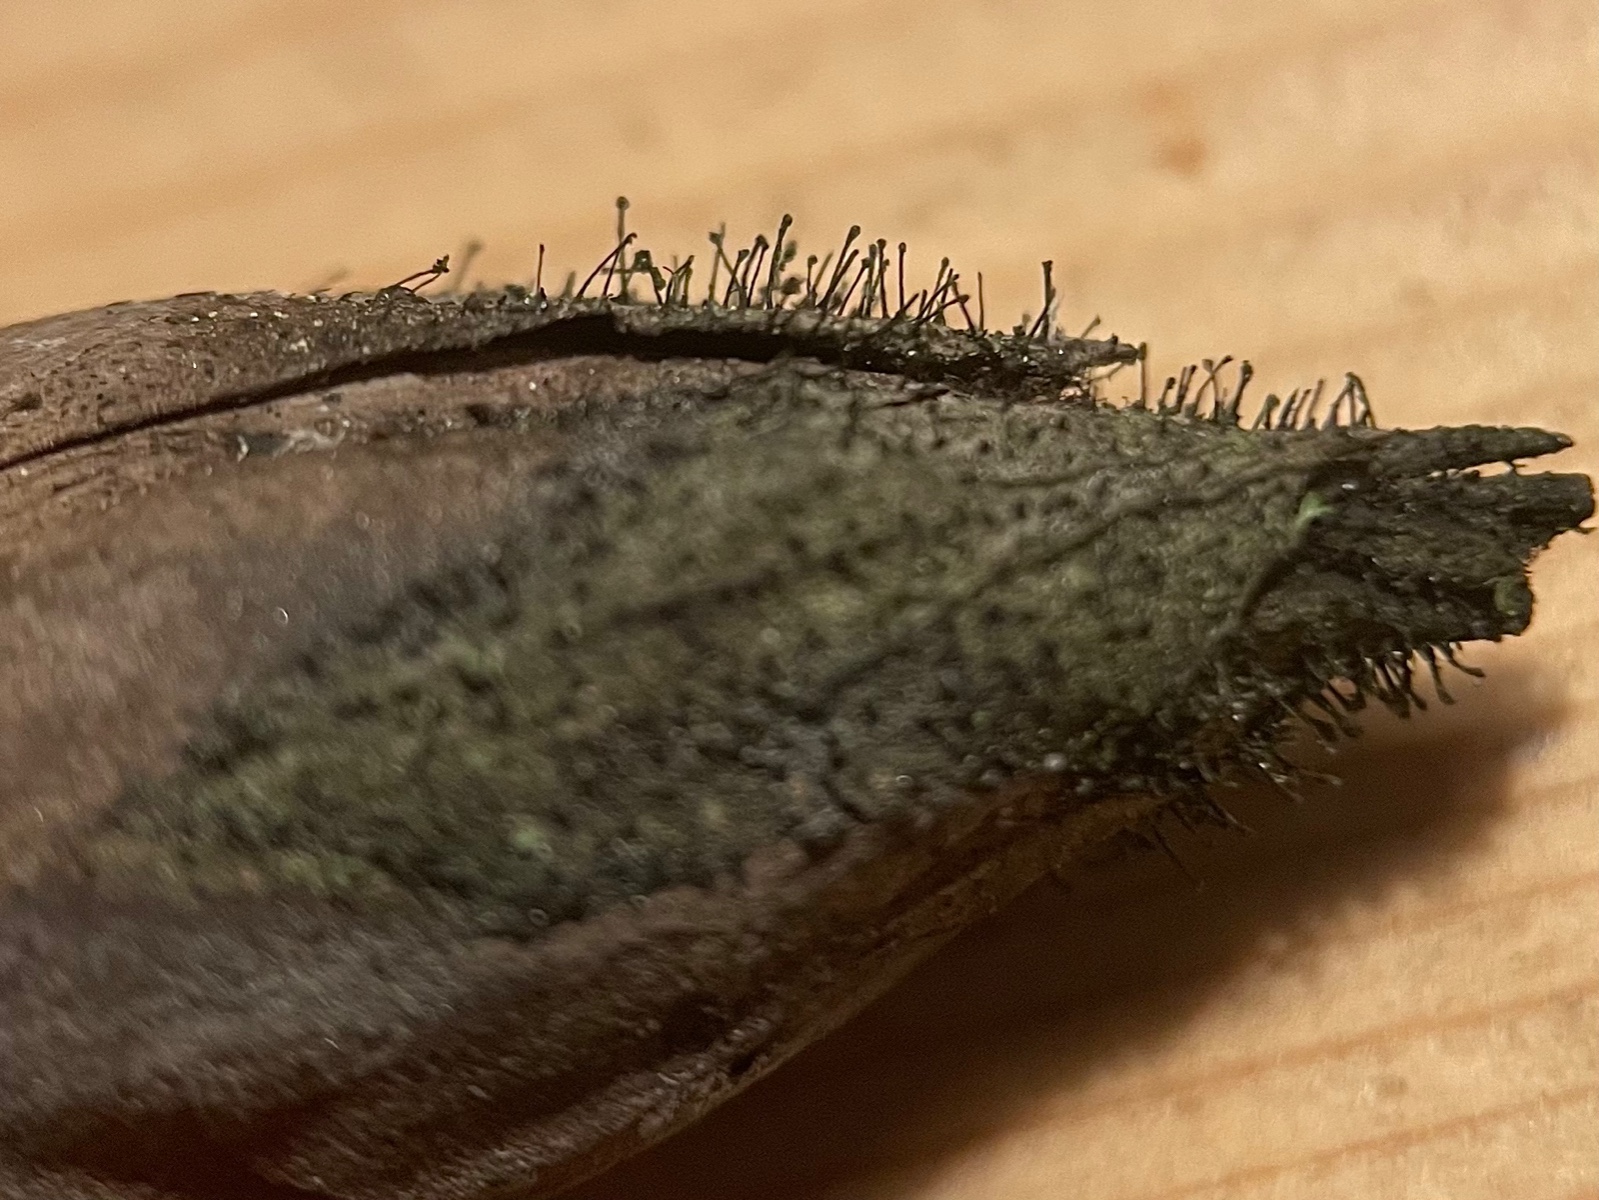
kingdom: Fungi
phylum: Ascomycota
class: Dothideomycetes
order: Pleosporales
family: Melanommataceae
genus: Seifertia
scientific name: Seifertia azaleae
